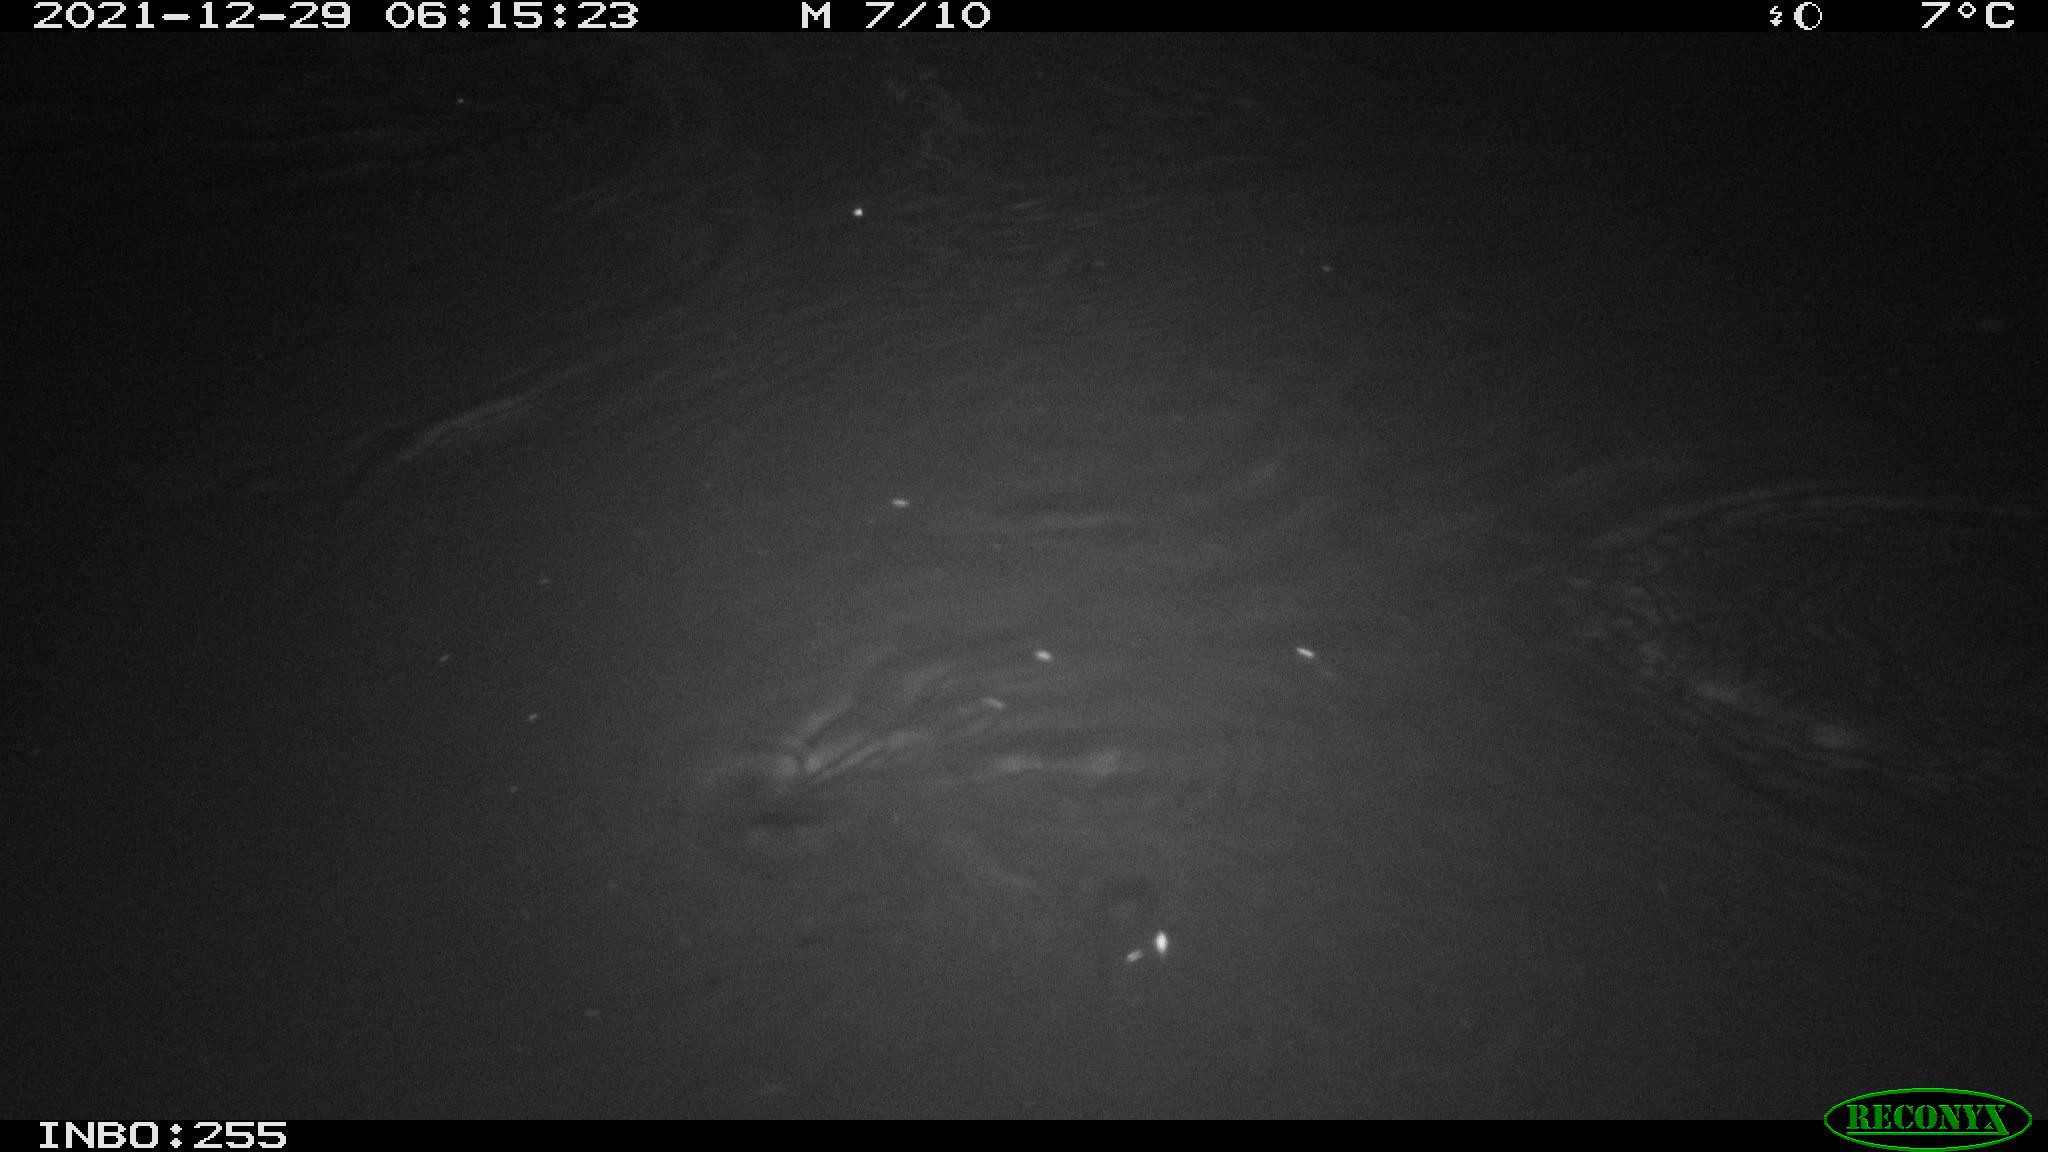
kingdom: Animalia
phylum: Chordata
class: Mammalia
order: Rodentia
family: Muridae
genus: Rattus
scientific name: Rattus norvegicus
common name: Brown rat
